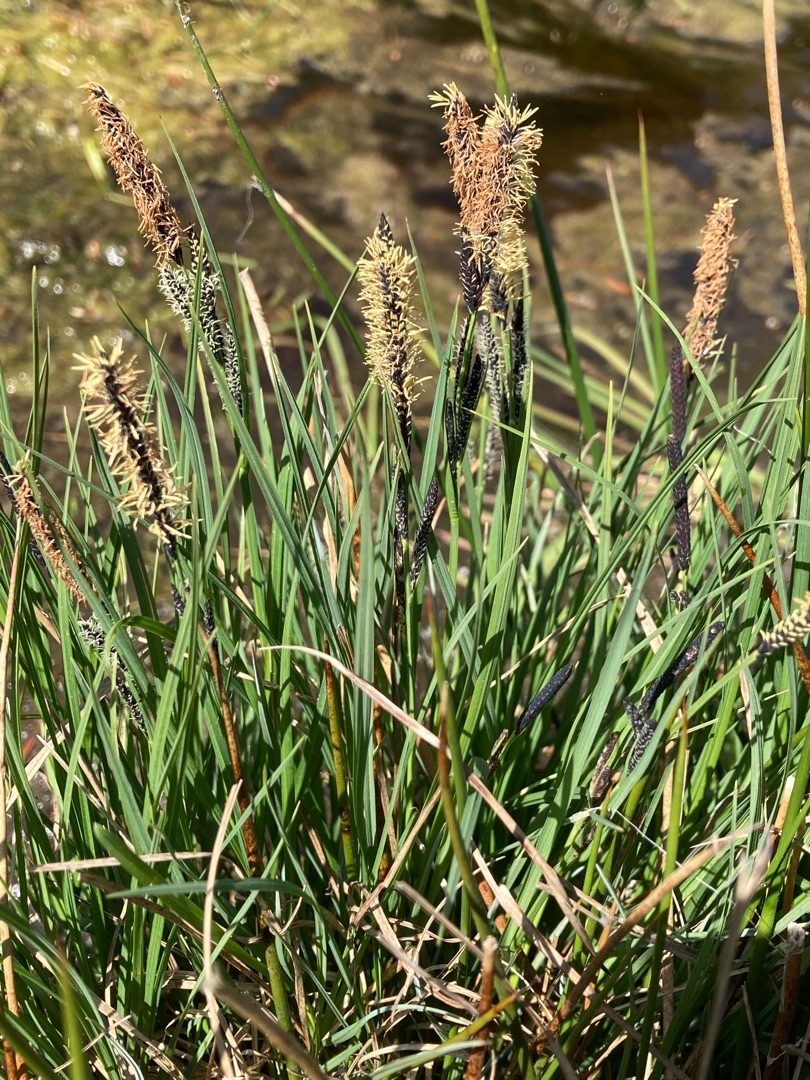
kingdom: Plantae
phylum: Tracheophyta
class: Liliopsida
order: Poales
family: Cyperaceae
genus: Carex
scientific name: Carex nigra
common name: Almindelig star
